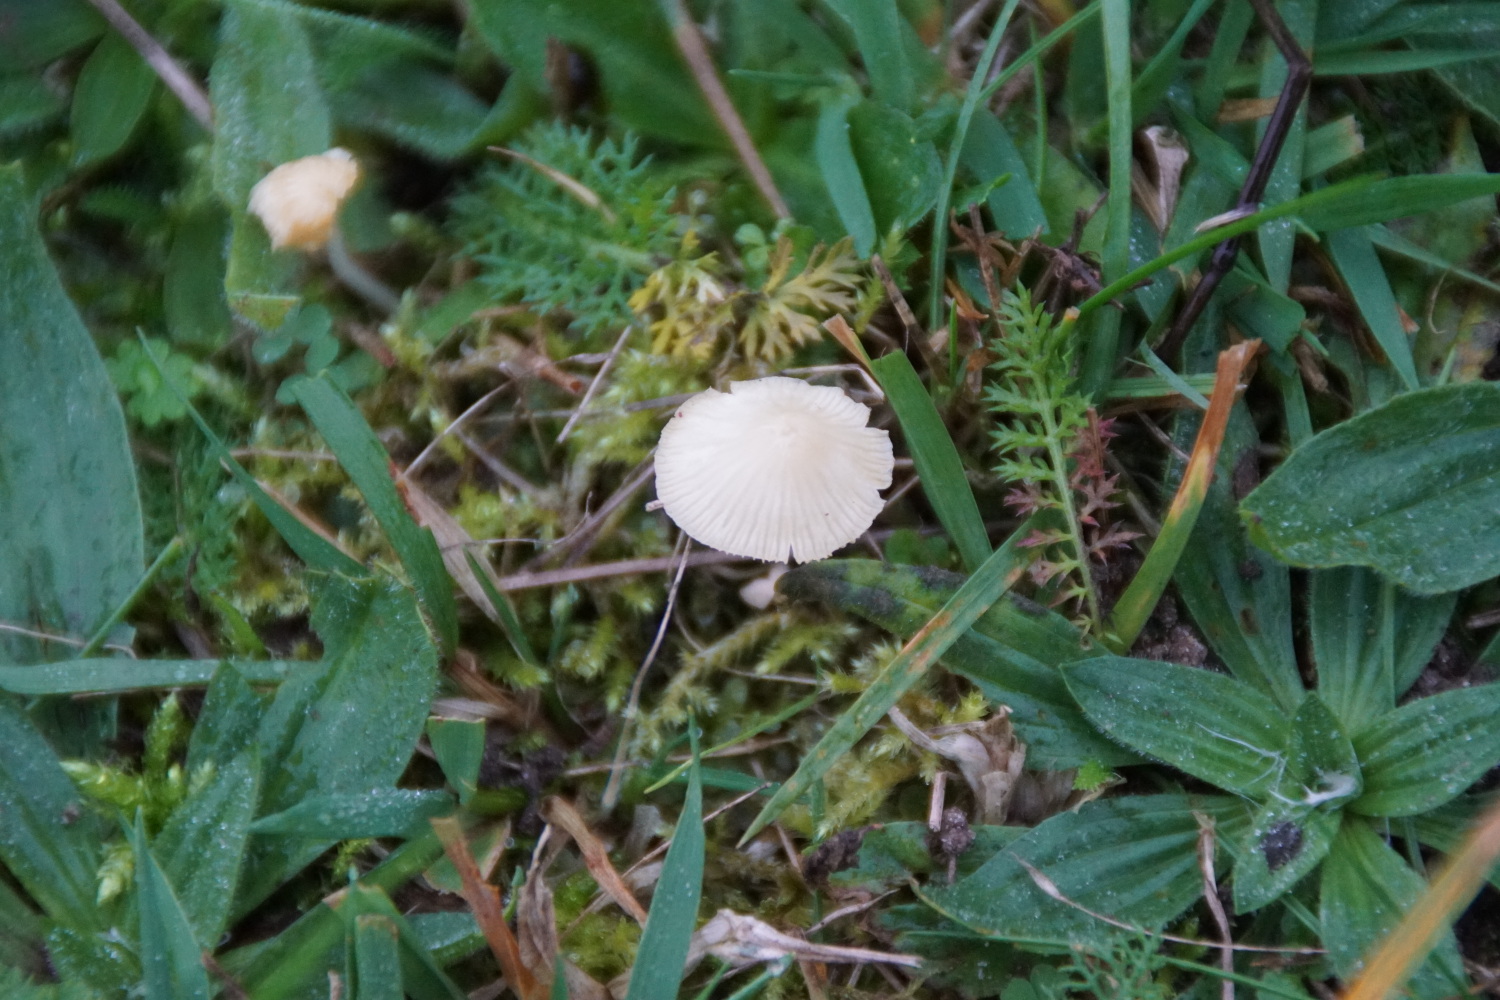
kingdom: Fungi
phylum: Basidiomycota
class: Agaricomycetes
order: Agaricales
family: Mycenaceae
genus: Atheniella
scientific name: Atheniella flavoalba
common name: gulhvid huesvamp
